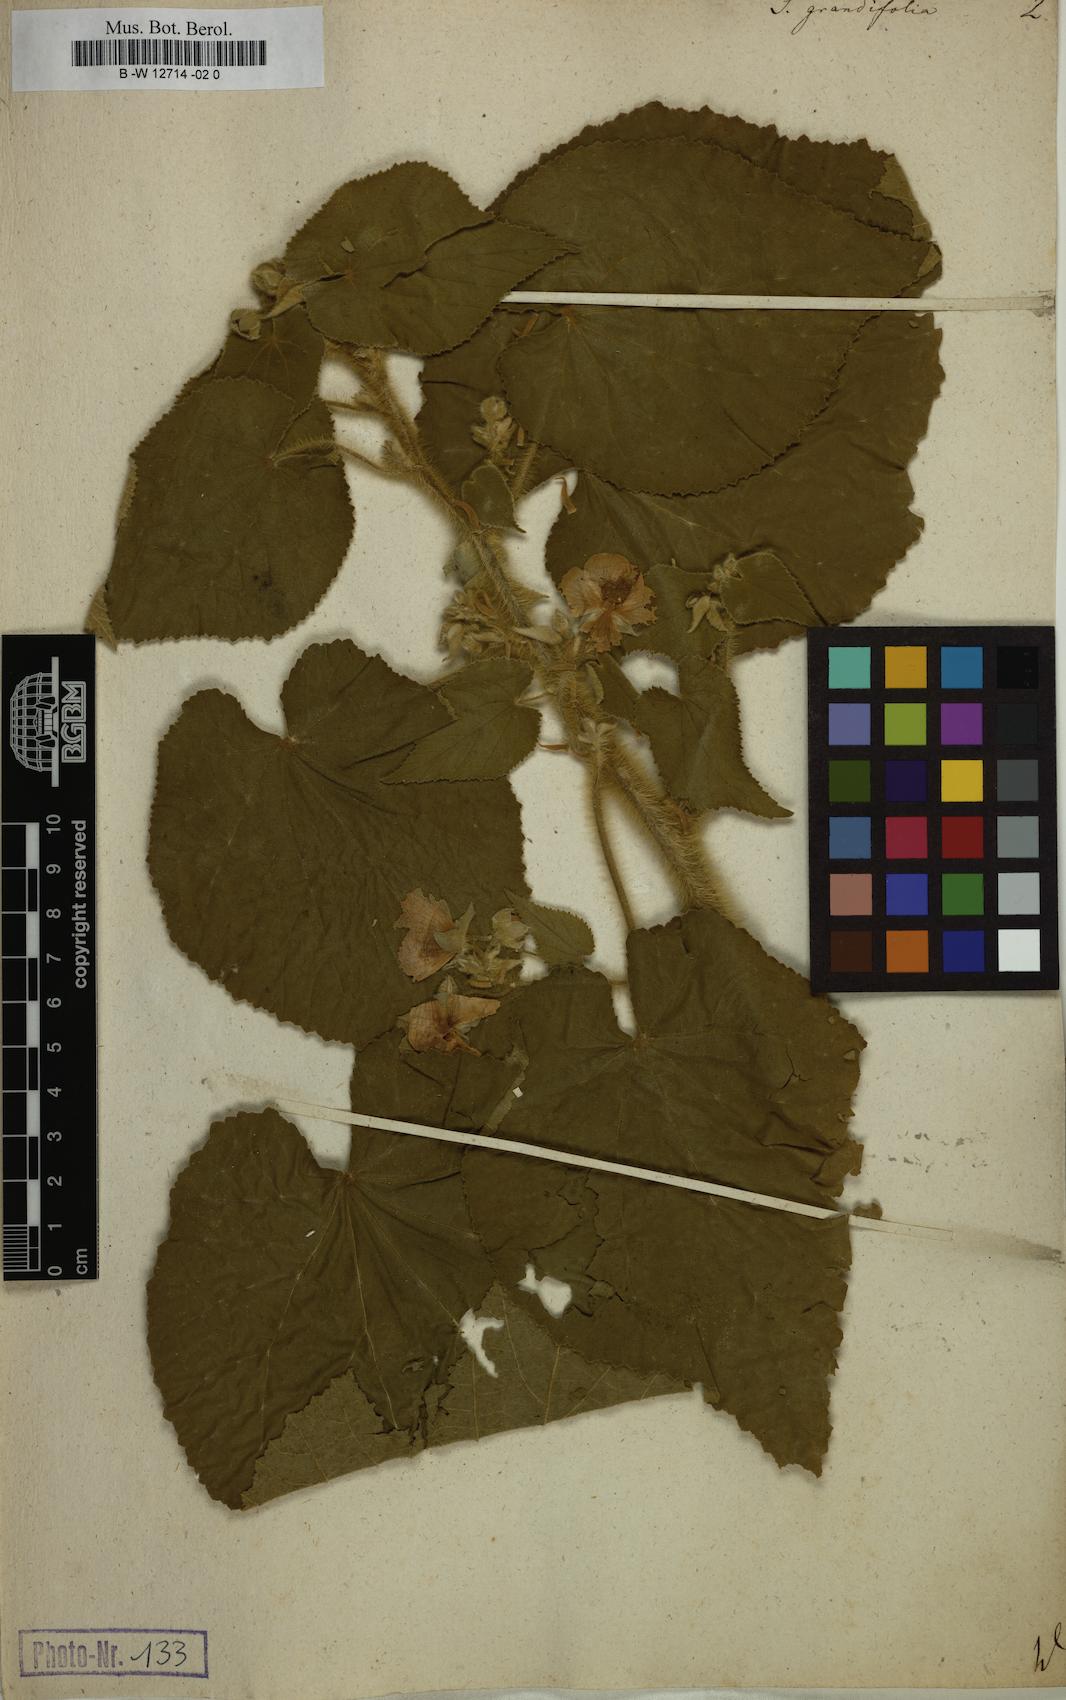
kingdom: Plantae
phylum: Tracheophyta
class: Magnoliopsida
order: Malvales
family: Malvaceae
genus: Abutilon
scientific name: Abutilon grandifolium
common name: Hairy abutilon
